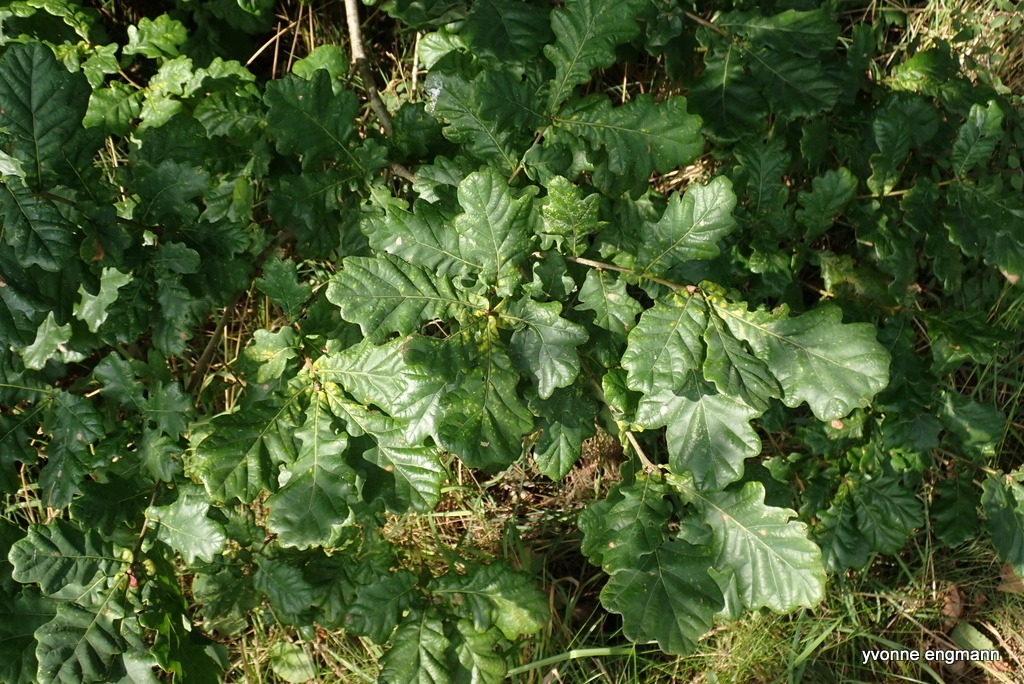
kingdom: Plantae
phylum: Tracheophyta
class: Magnoliopsida
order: Fagales
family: Fagaceae
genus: Quercus
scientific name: Quercus robur
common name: Stilk-eg/almindelig eg
